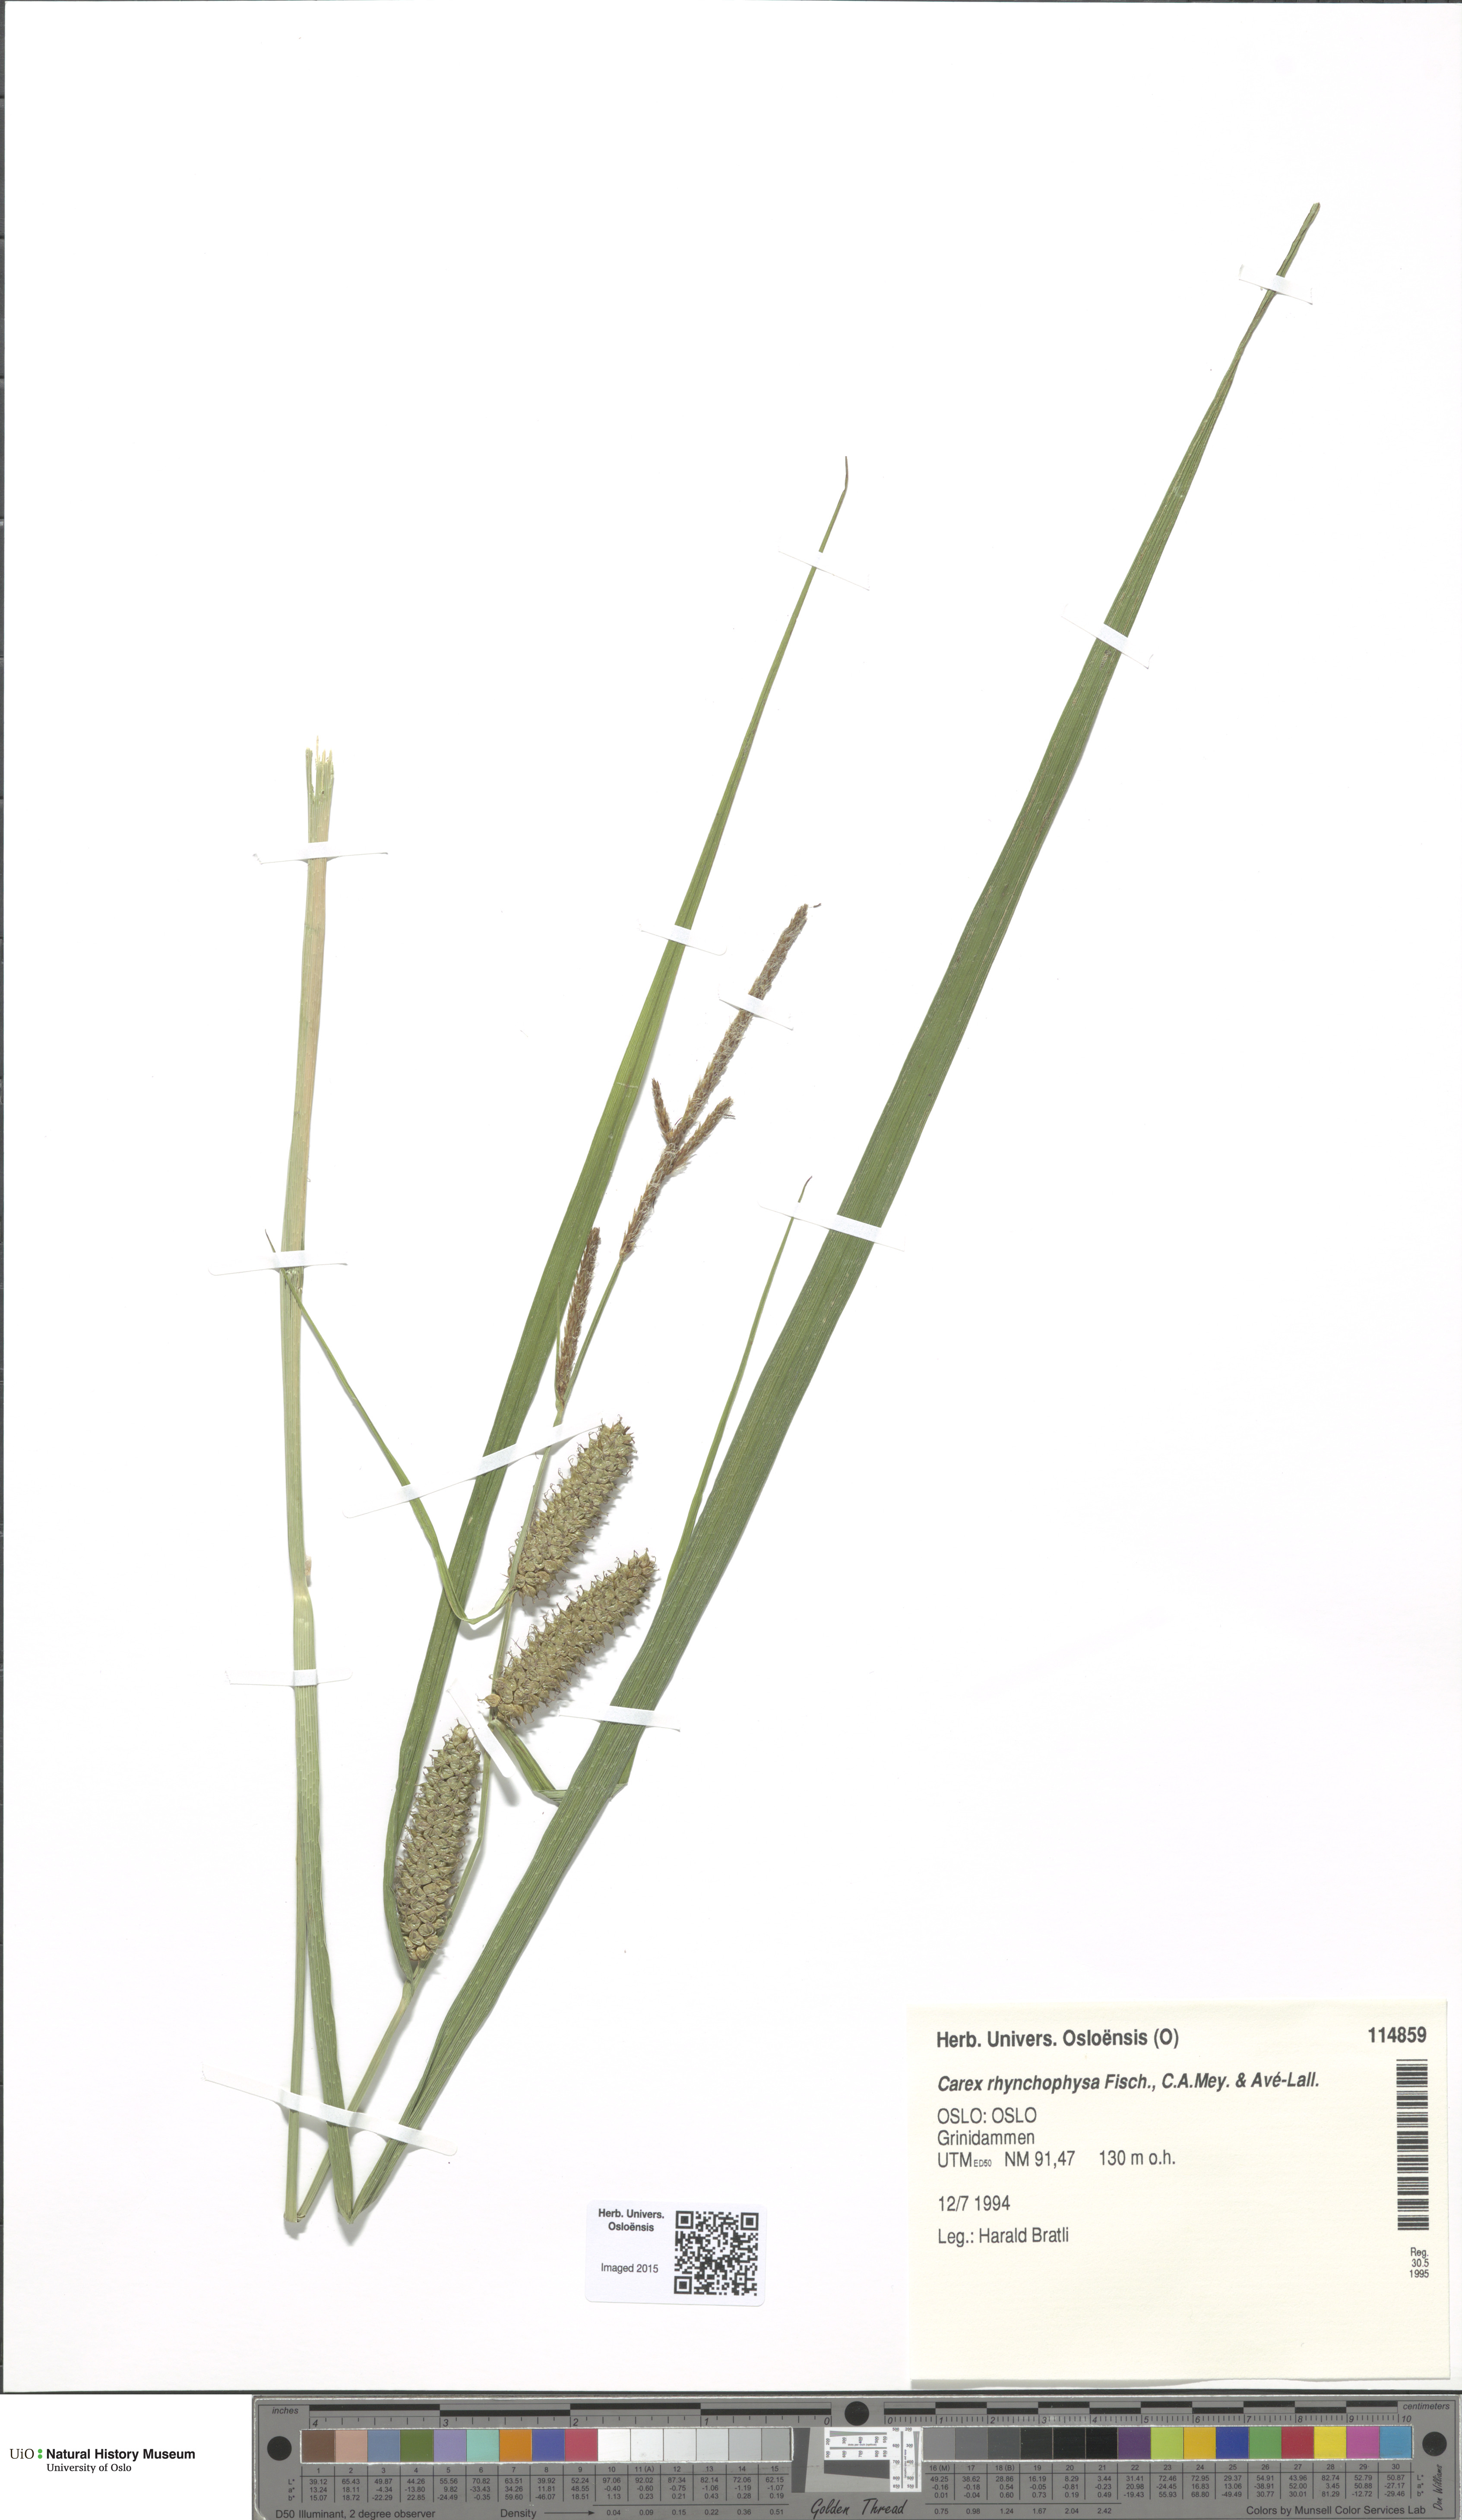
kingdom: Plantae
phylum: Tracheophyta
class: Liliopsida
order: Poales
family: Cyperaceae
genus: Carex
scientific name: Carex utriculata
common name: Beaked sedge
